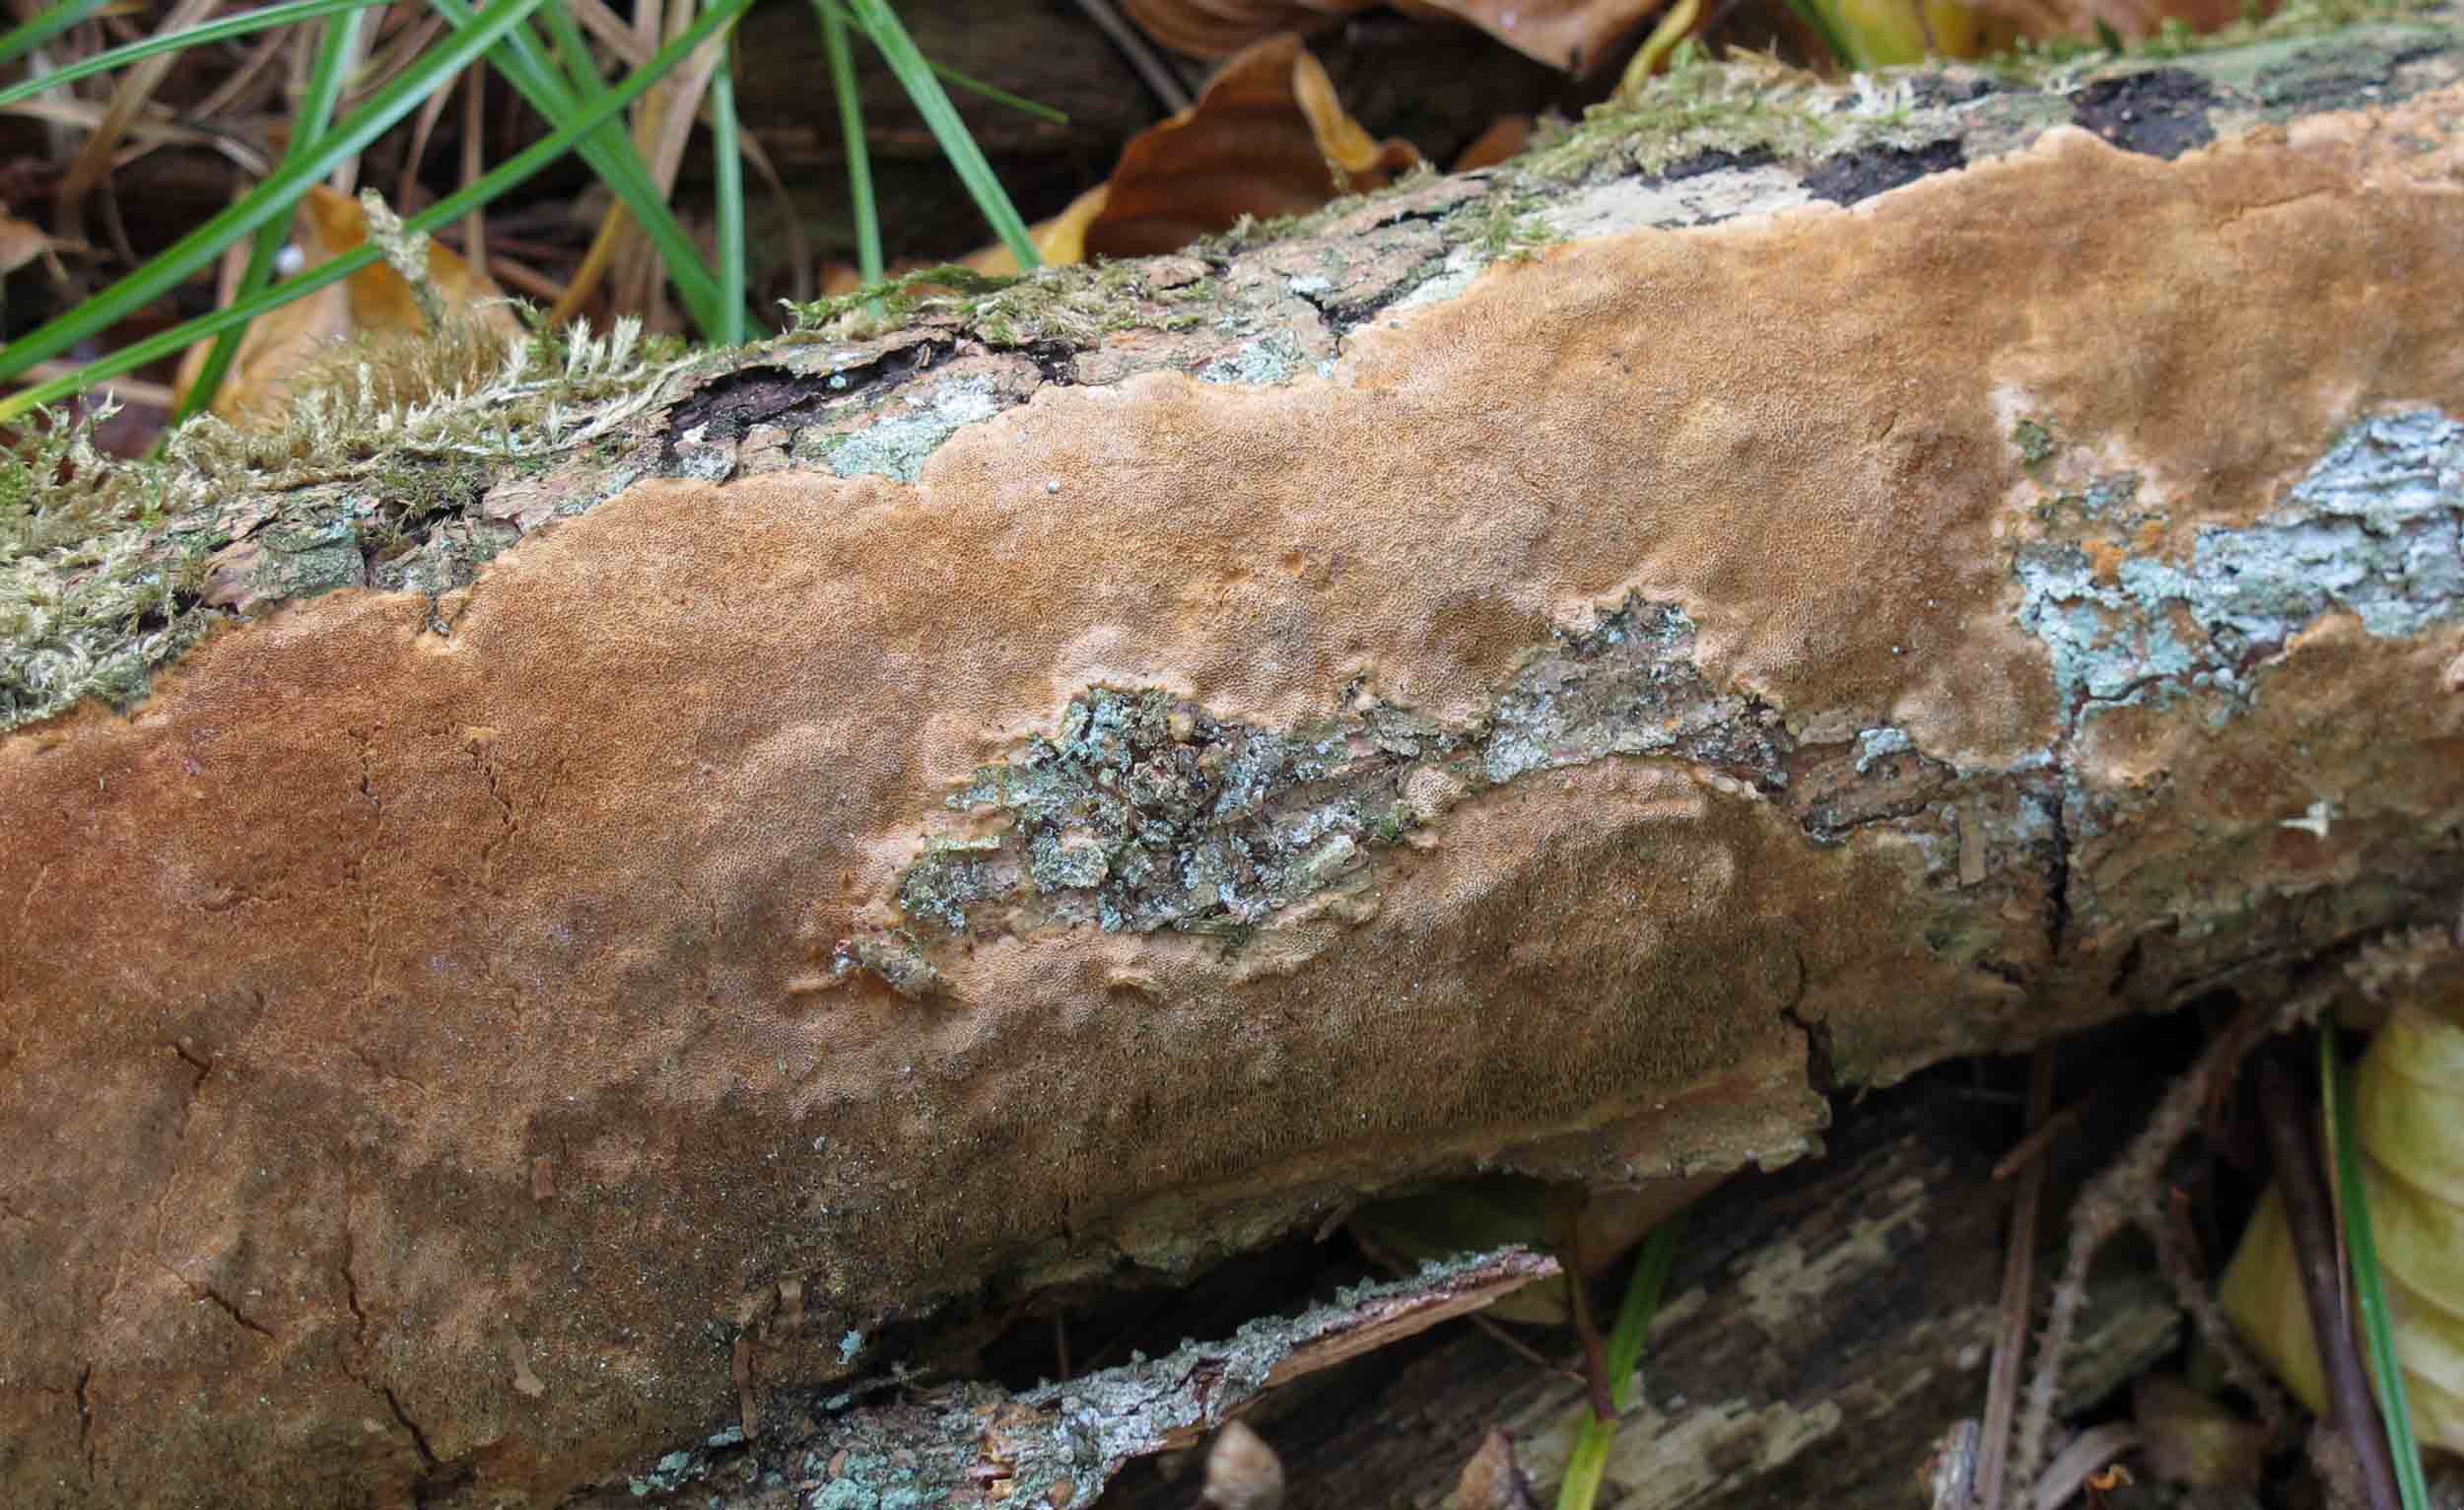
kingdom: Fungi
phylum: Basidiomycota
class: Agaricomycetes
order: Hymenochaetales
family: Hymenochaetaceae
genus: Fuscoporia
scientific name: Fuscoporia ferrea
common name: skorpe-ildporesvamp
